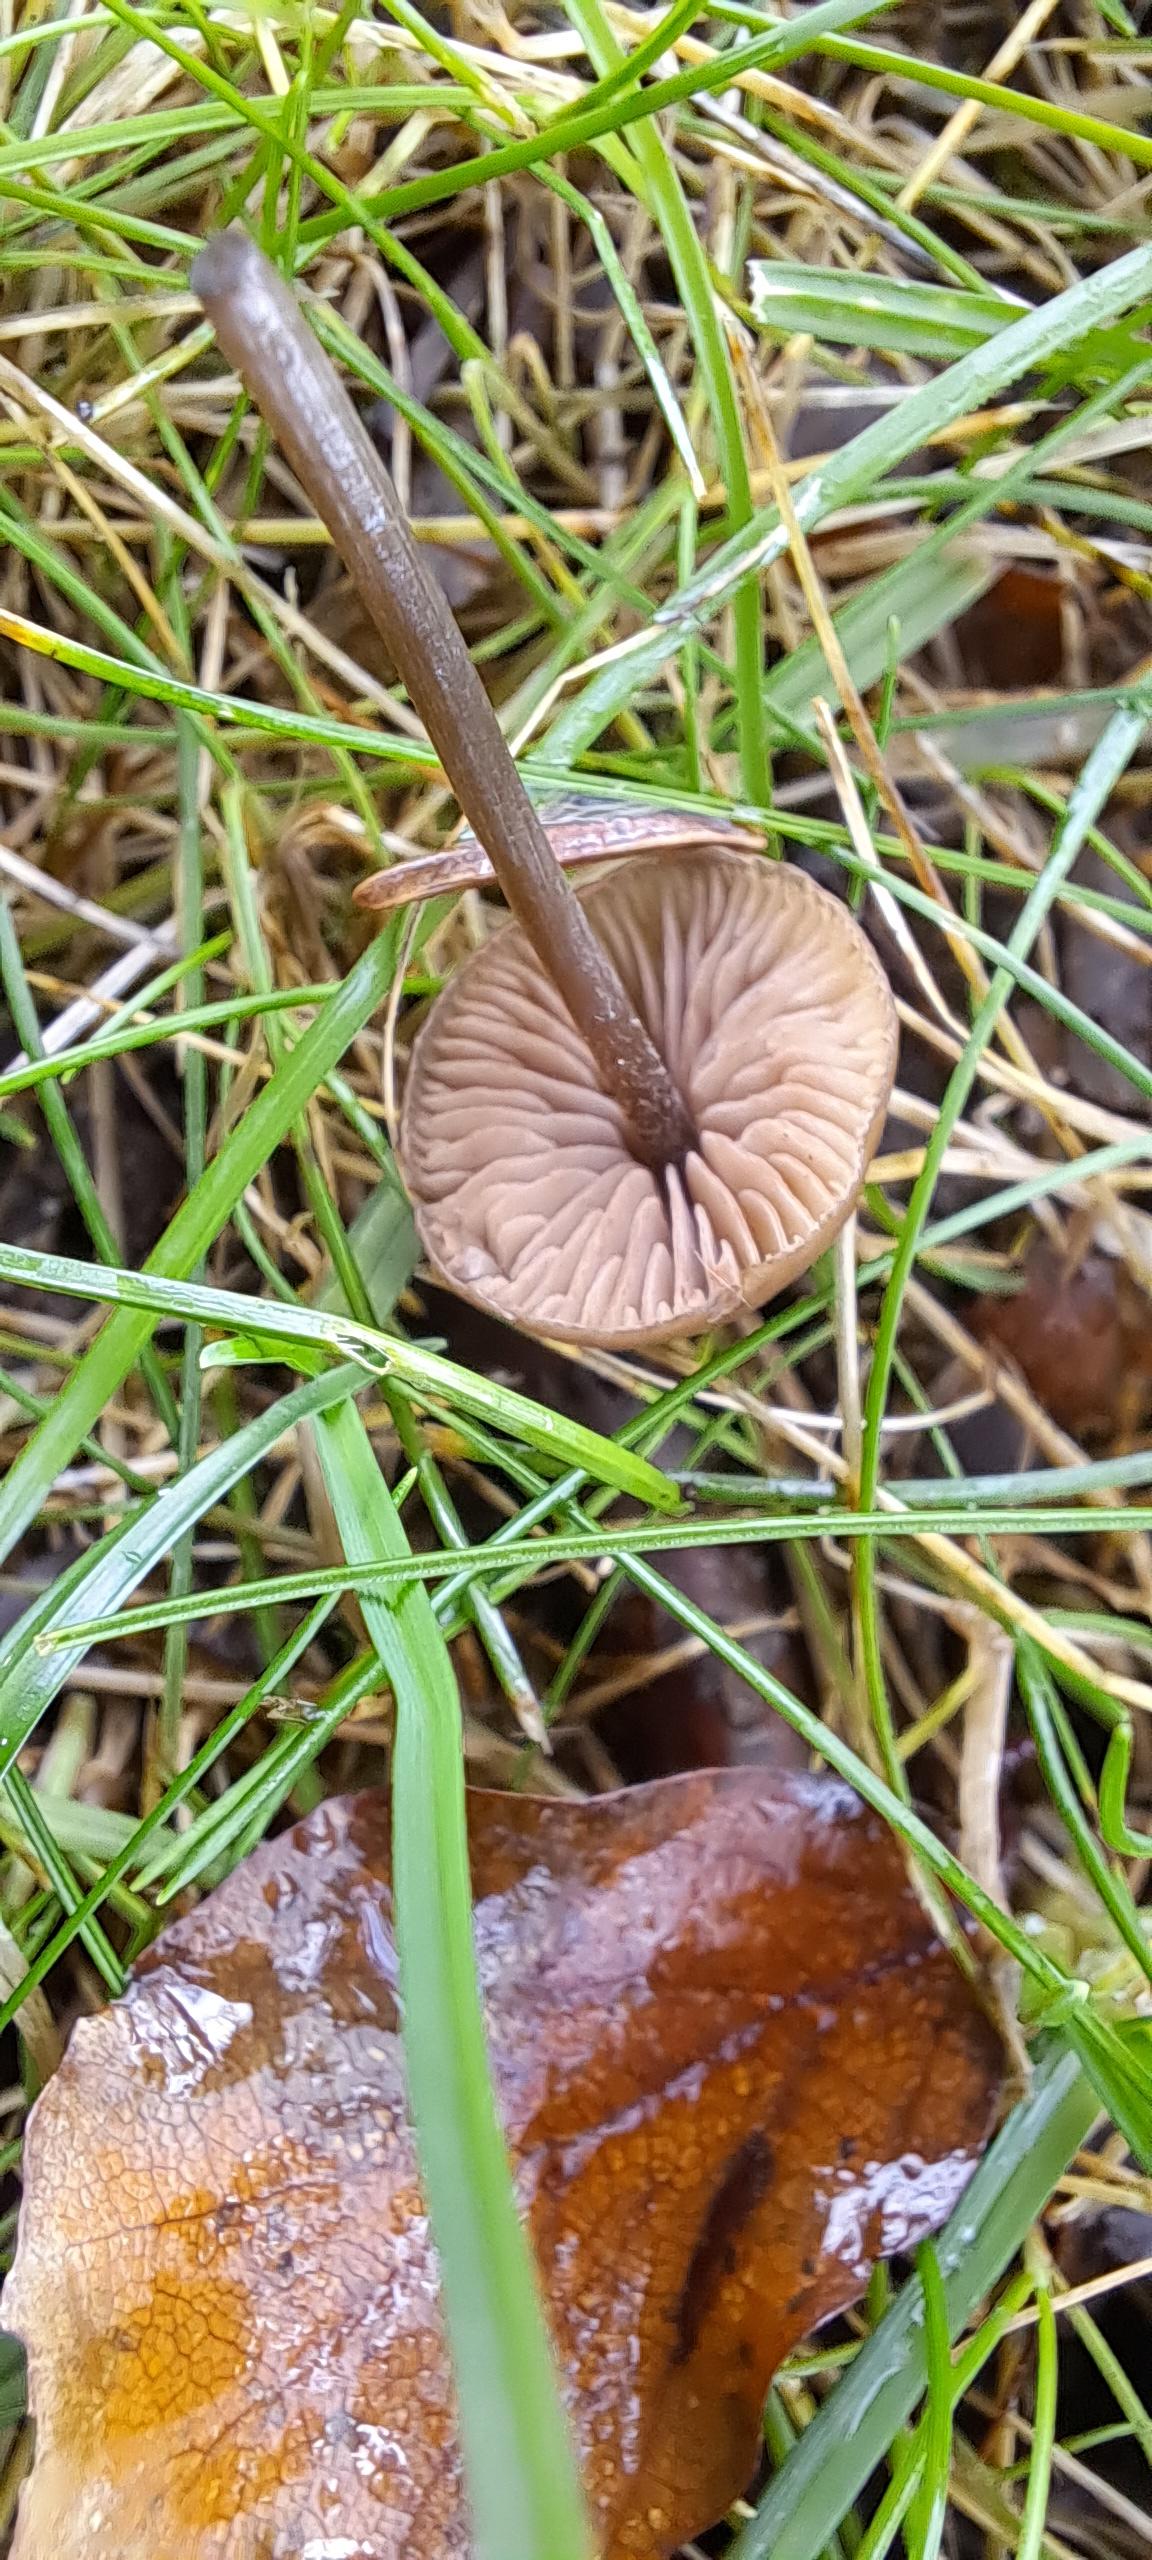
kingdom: Fungi
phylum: Basidiomycota
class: Agaricomycetes
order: Agaricales
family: Entolomataceae
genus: Entoloma
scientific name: Entoloma
